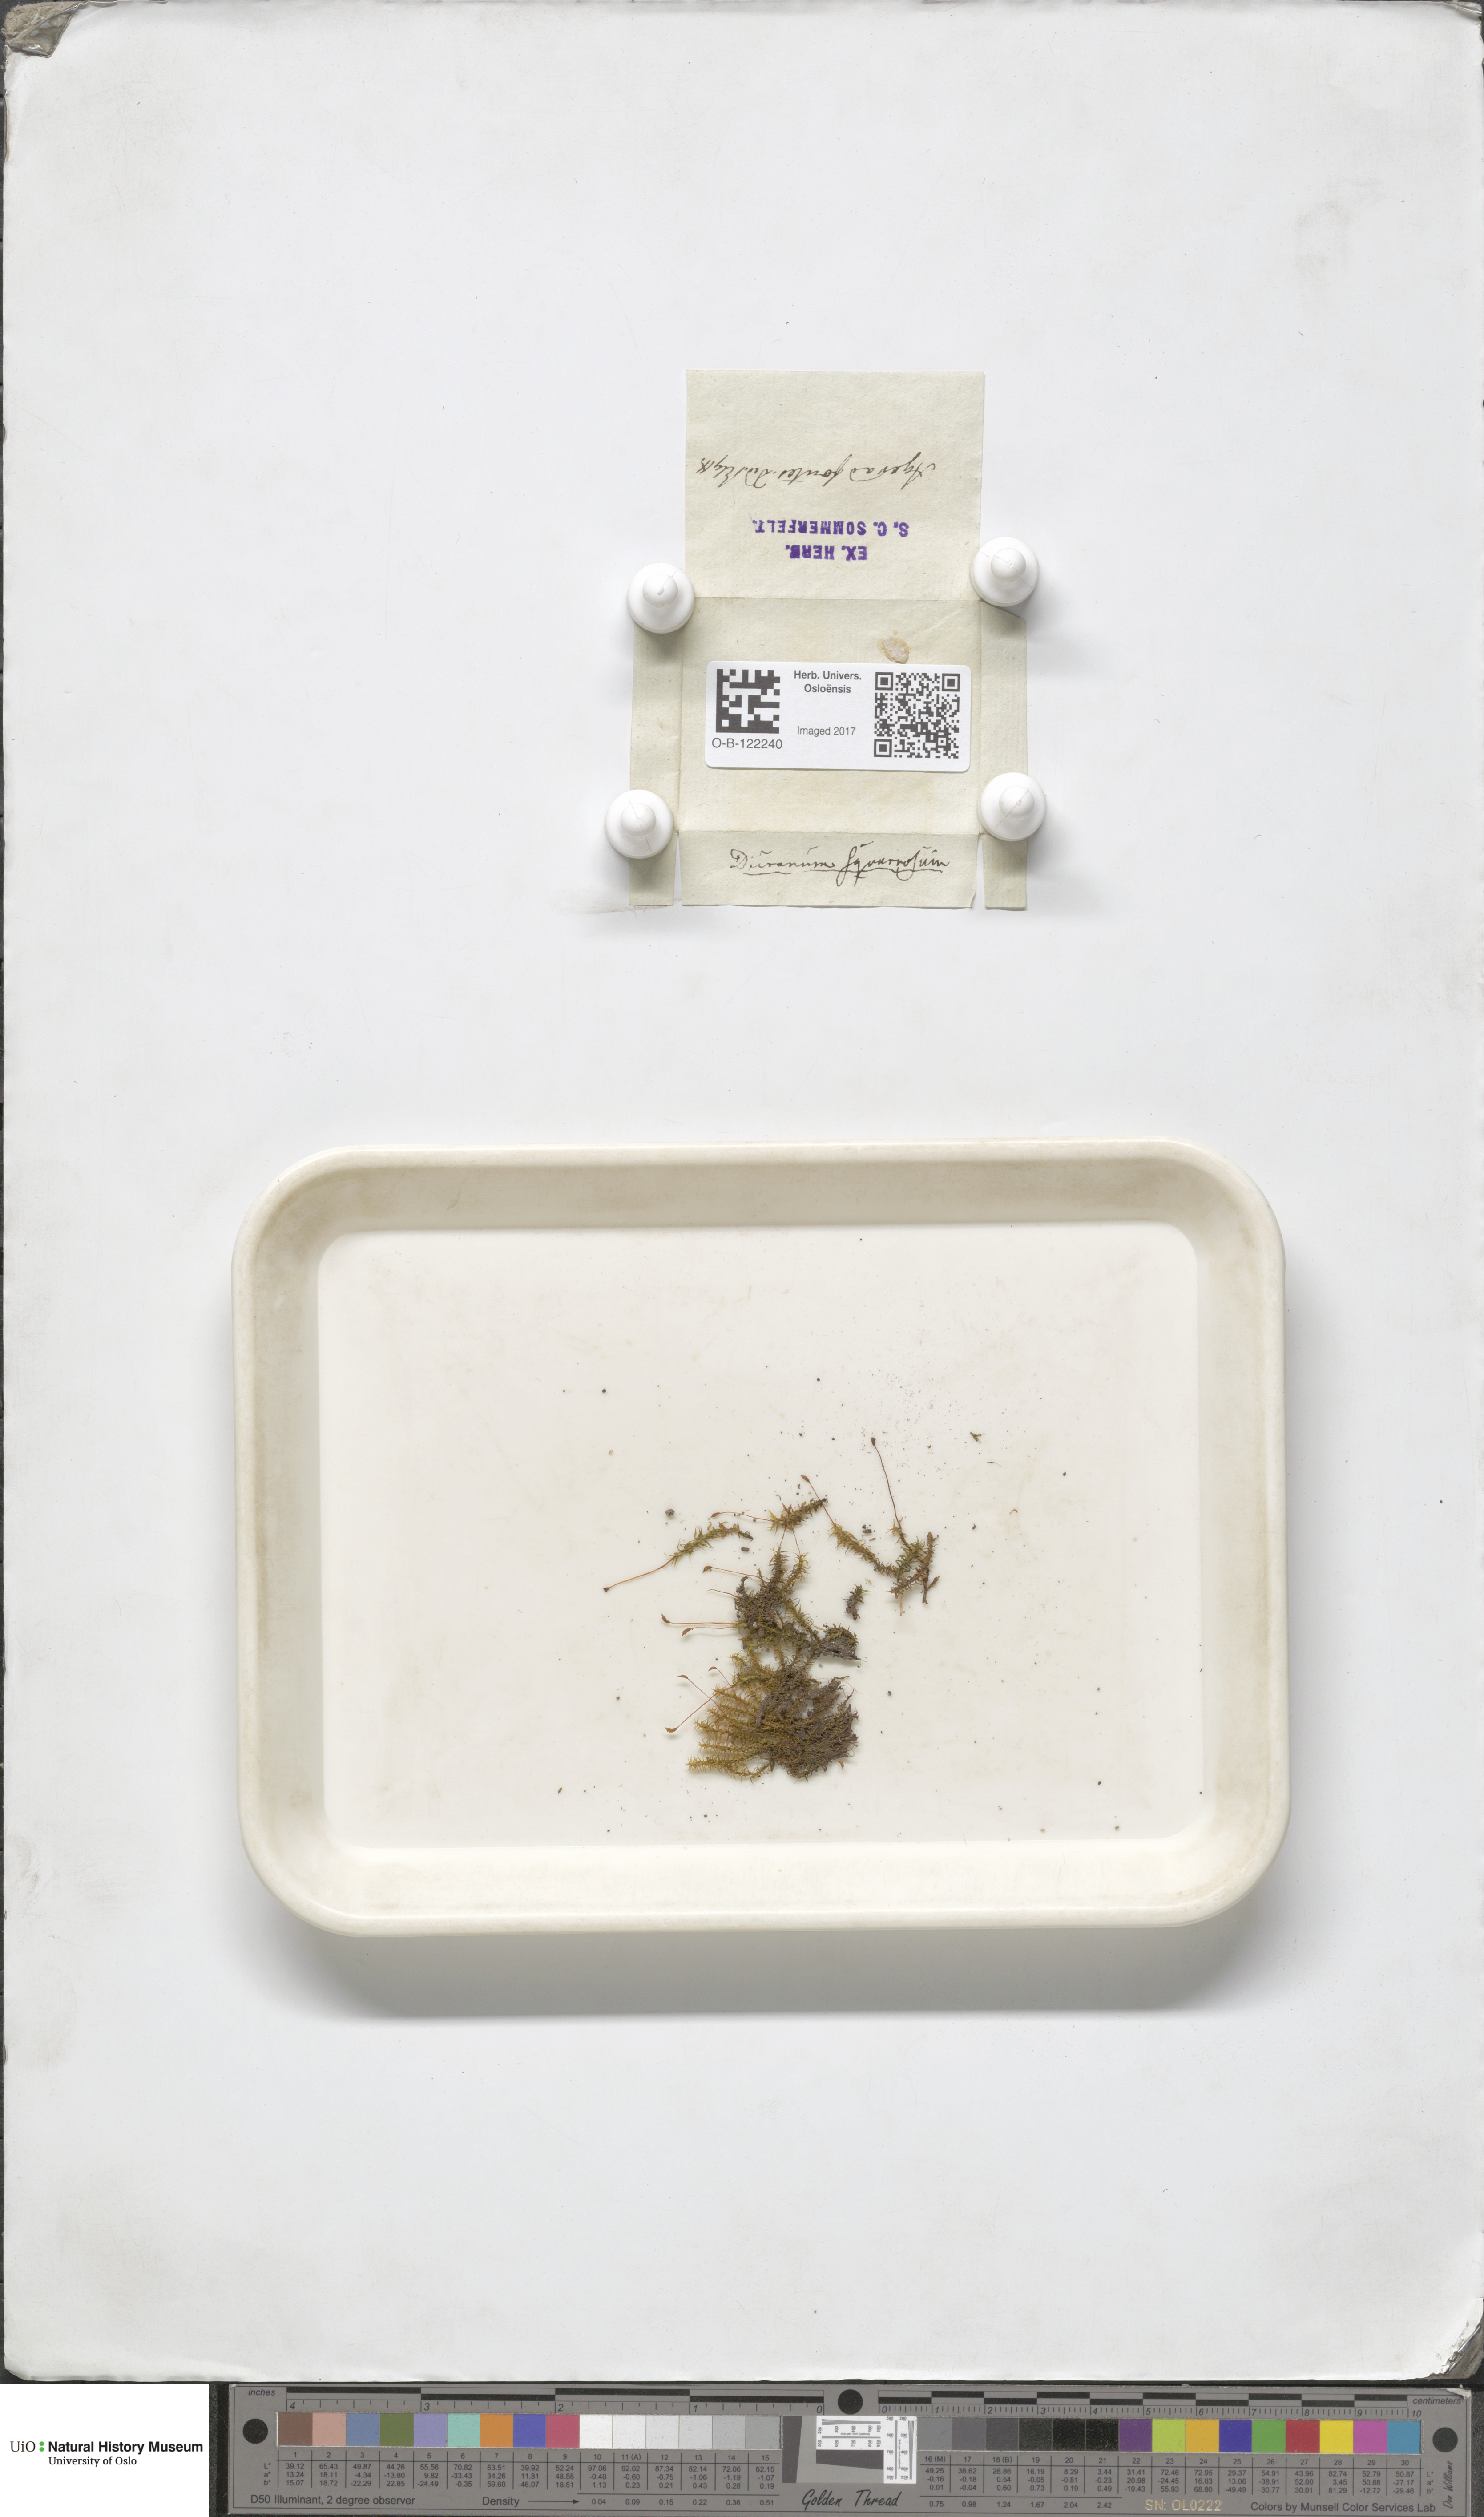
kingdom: Plantae
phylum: Bryophyta
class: Bryopsida
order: Dicranales
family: Aongstroemiaceae
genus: Diobelonella
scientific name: Diobelonella palustris
